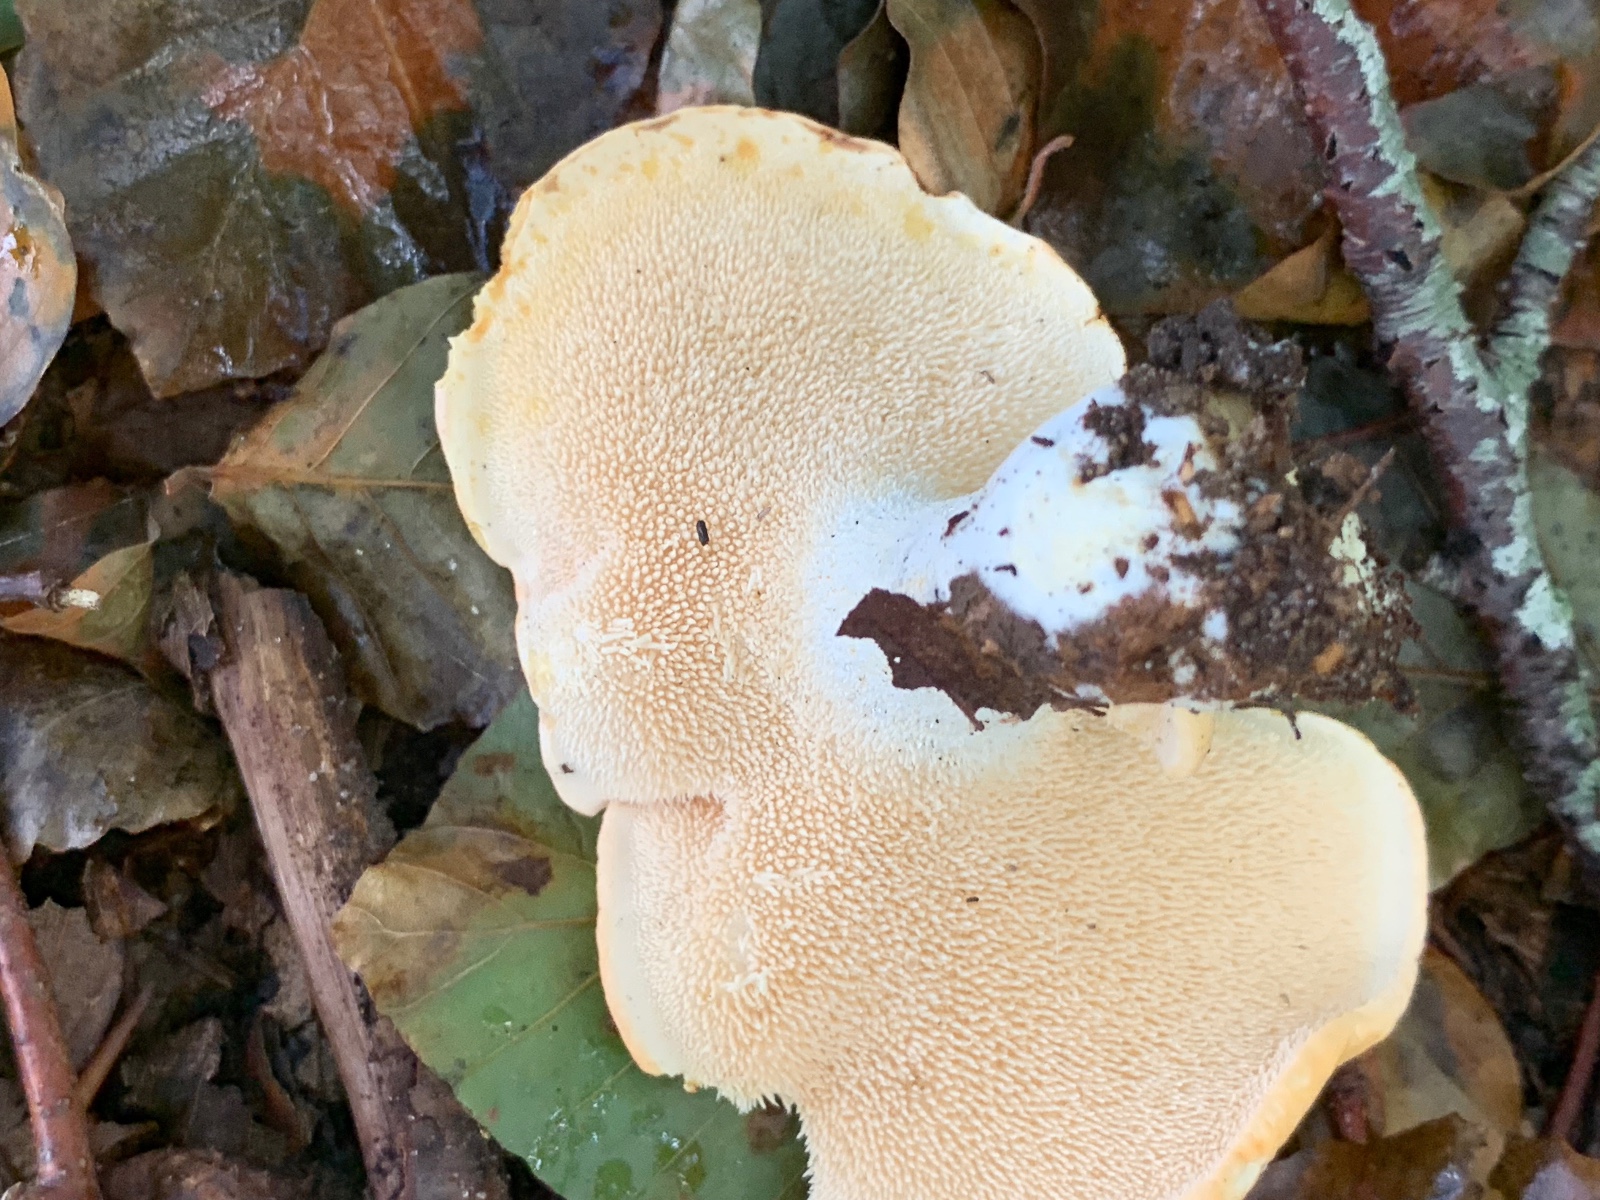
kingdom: Fungi
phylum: Basidiomycota
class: Agaricomycetes
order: Cantharellales
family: Hydnaceae
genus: Hydnum
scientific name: Hydnum repandum
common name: almindelig pigsvamp
